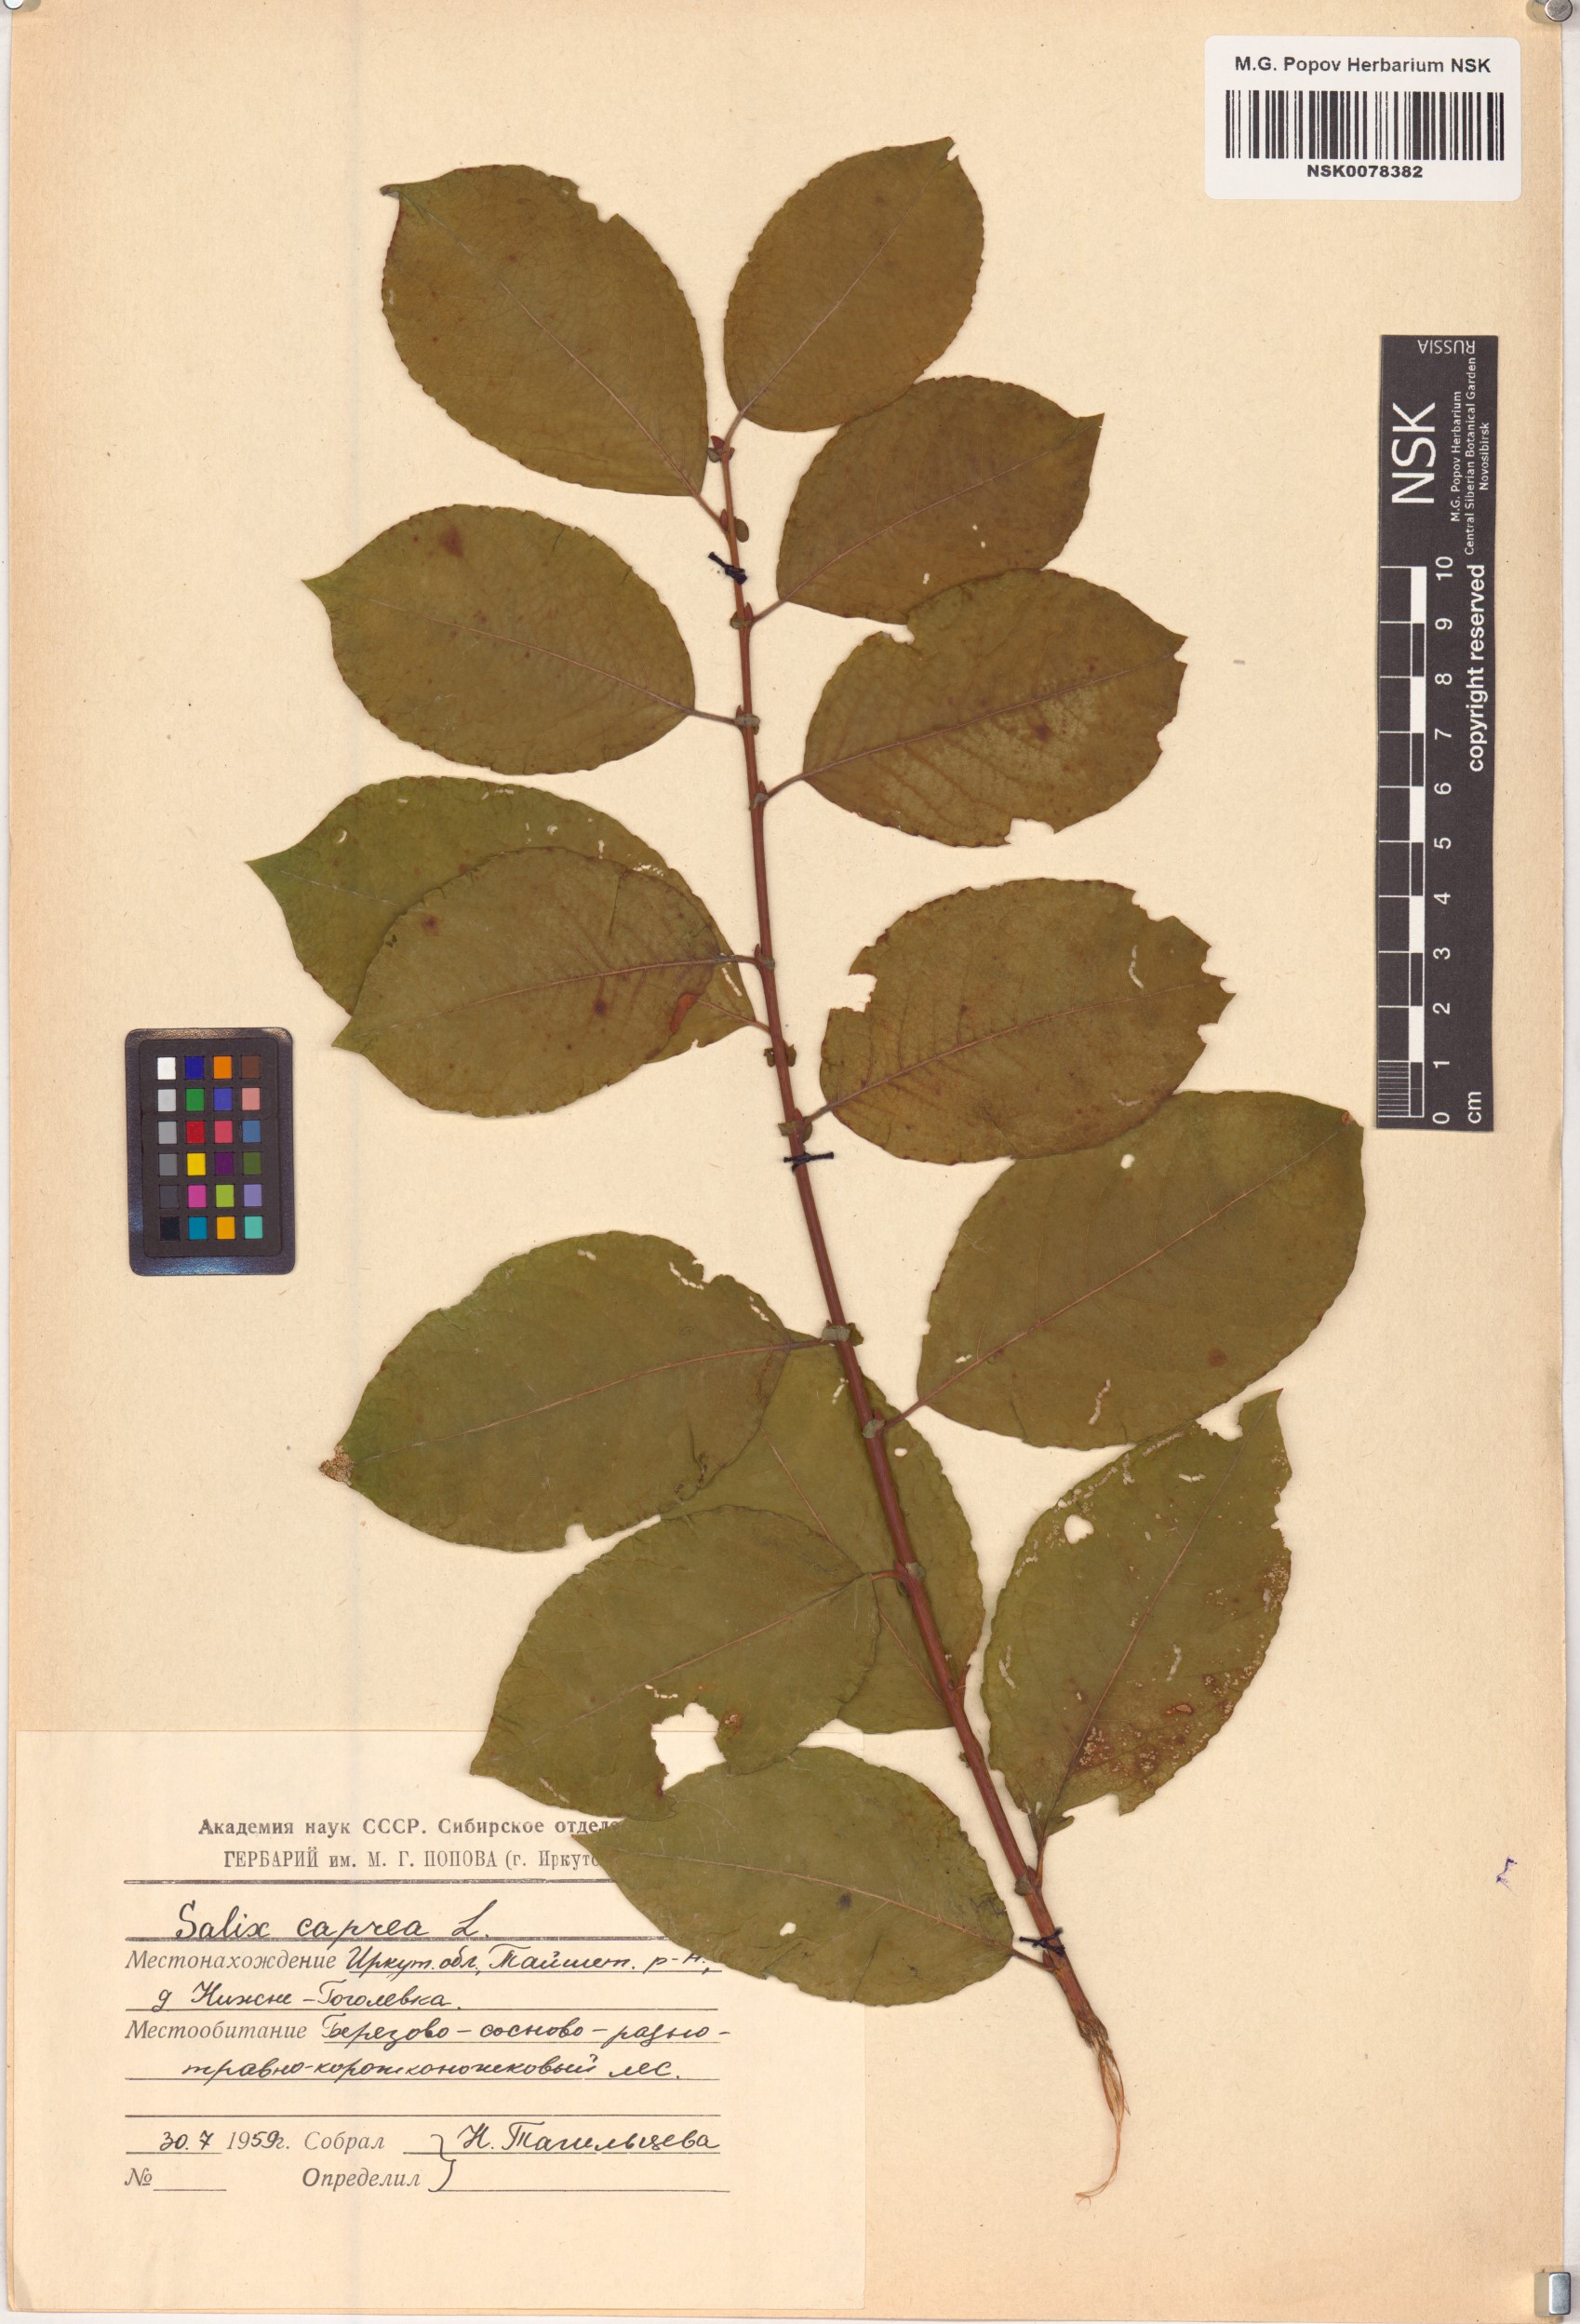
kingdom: Plantae
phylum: Tracheophyta
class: Magnoliopsida
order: Malpighiales
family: Salicaceae
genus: Salix
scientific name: Salix caprea
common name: Goat willow
